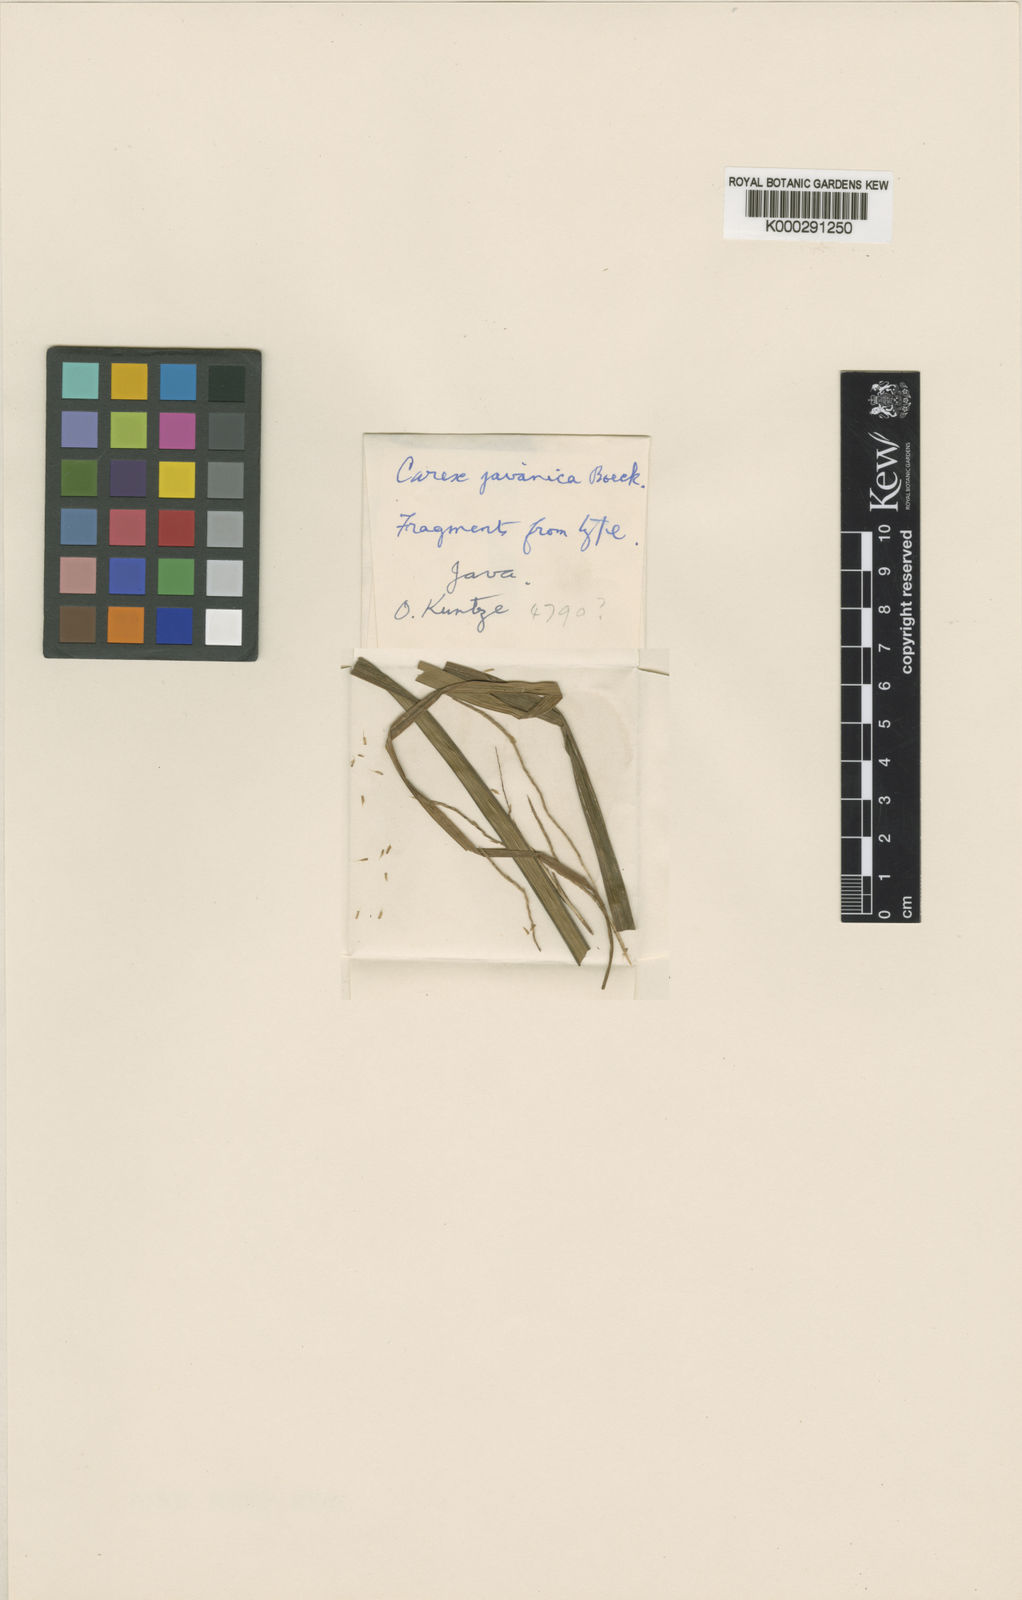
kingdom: Plantae
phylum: Tracheophyta
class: Liliopsida
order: Poales
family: Cyperaceae
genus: Carex
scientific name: Carex baccans
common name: Crimson seeded sedge
